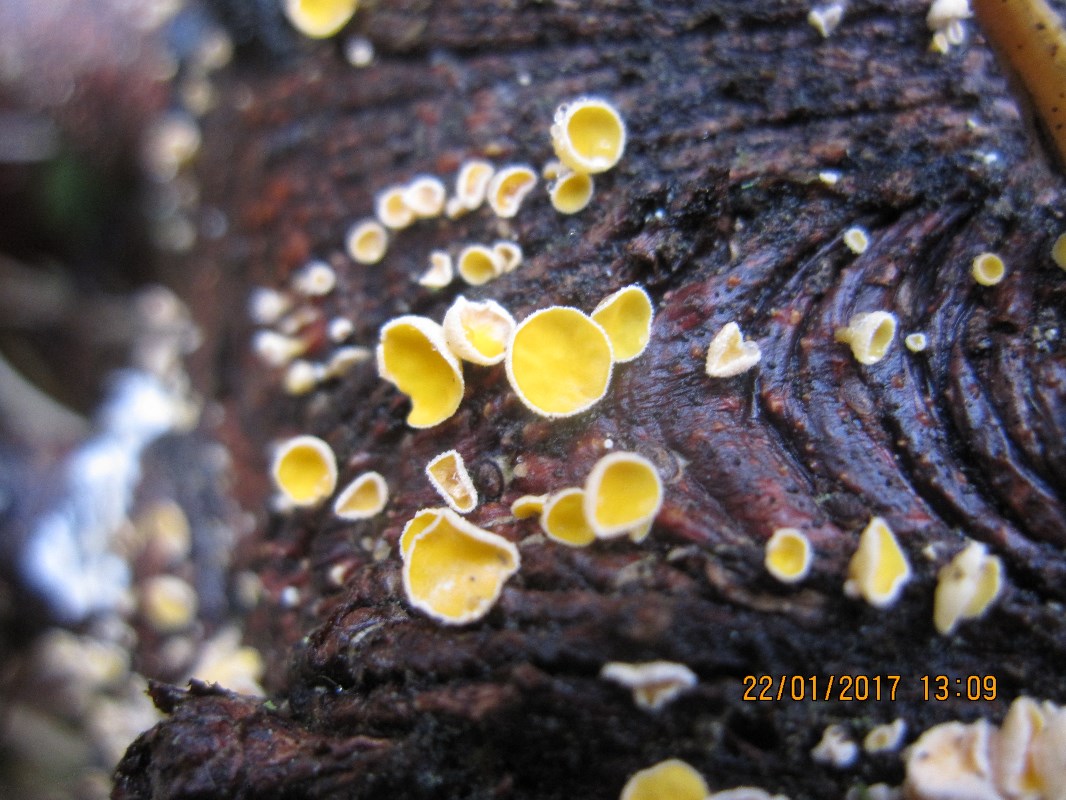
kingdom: Fungi
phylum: Ascomycota
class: Leotiomycetes
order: Helotiales
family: Lachnaceae
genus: Lachnellula
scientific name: Lachnellula subtilissima
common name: gran-frynseskive
